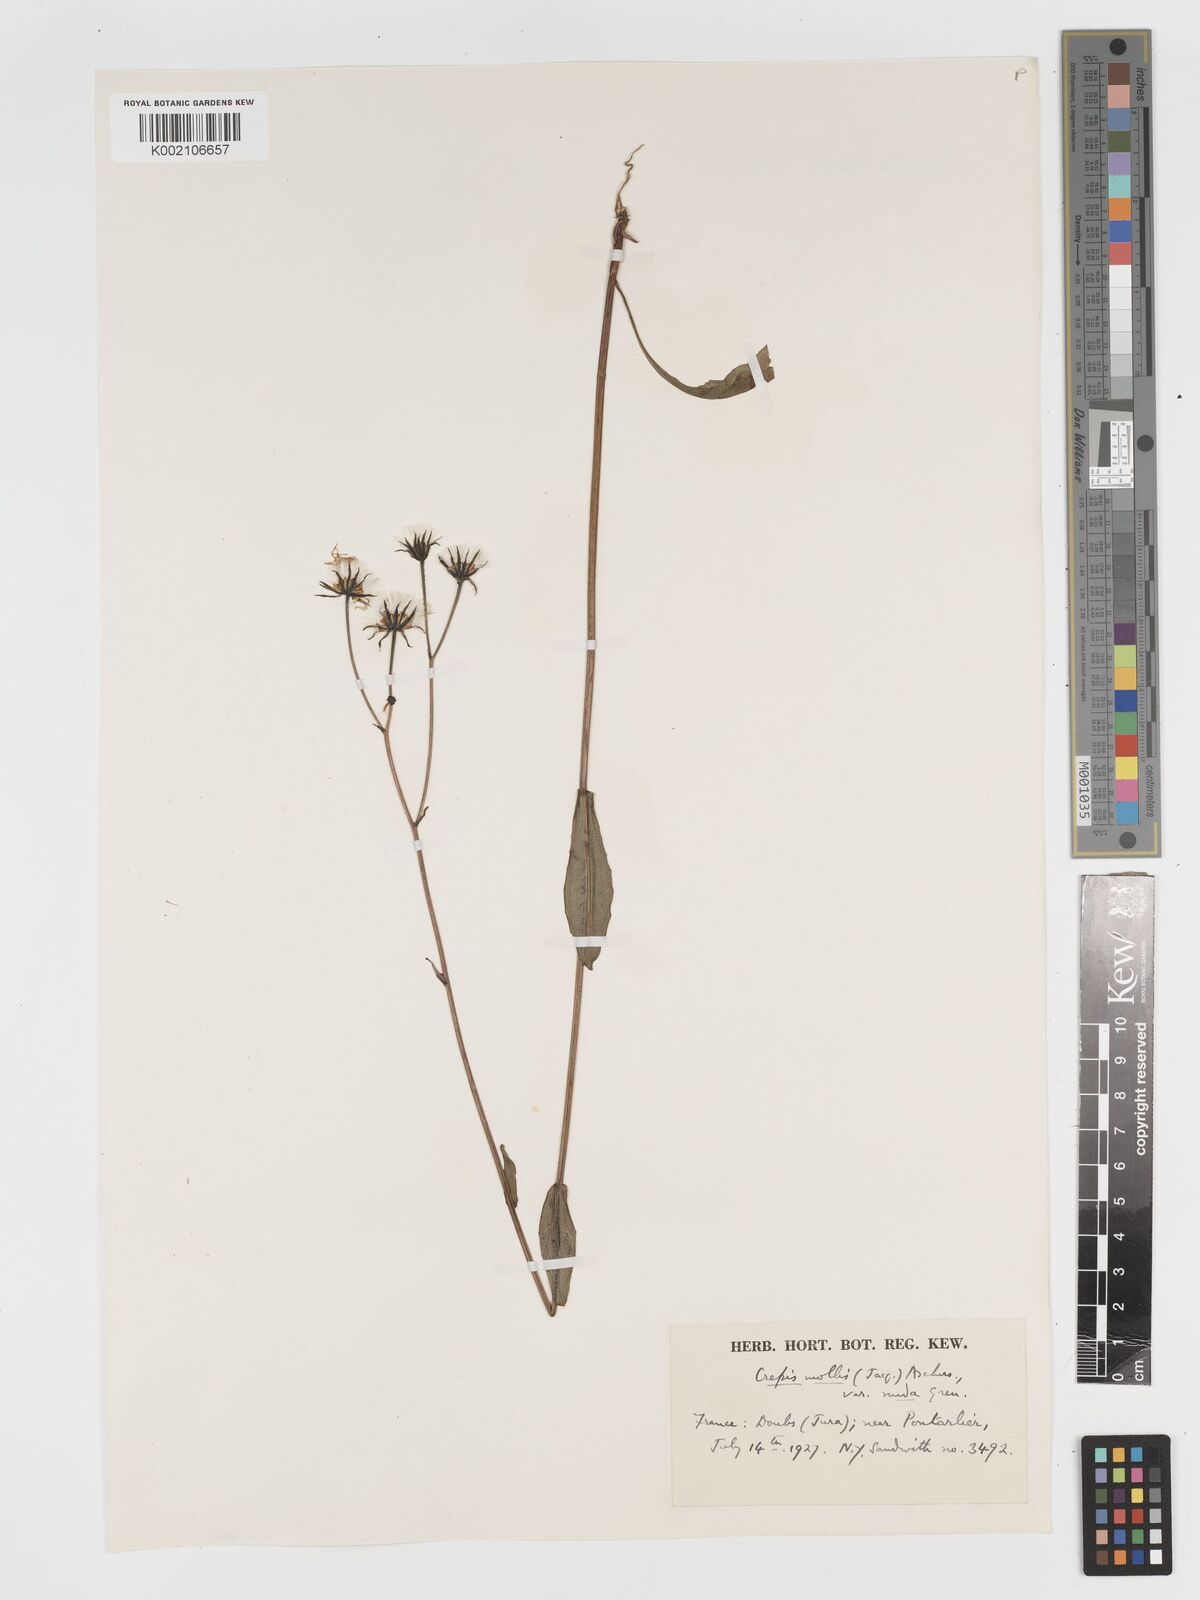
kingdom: Plantae
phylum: Tracheophyta
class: Magnoliopsida
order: Asterales
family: Asteraceae
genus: Crepis
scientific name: Crepis mollis
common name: Northern hawk's-beard
